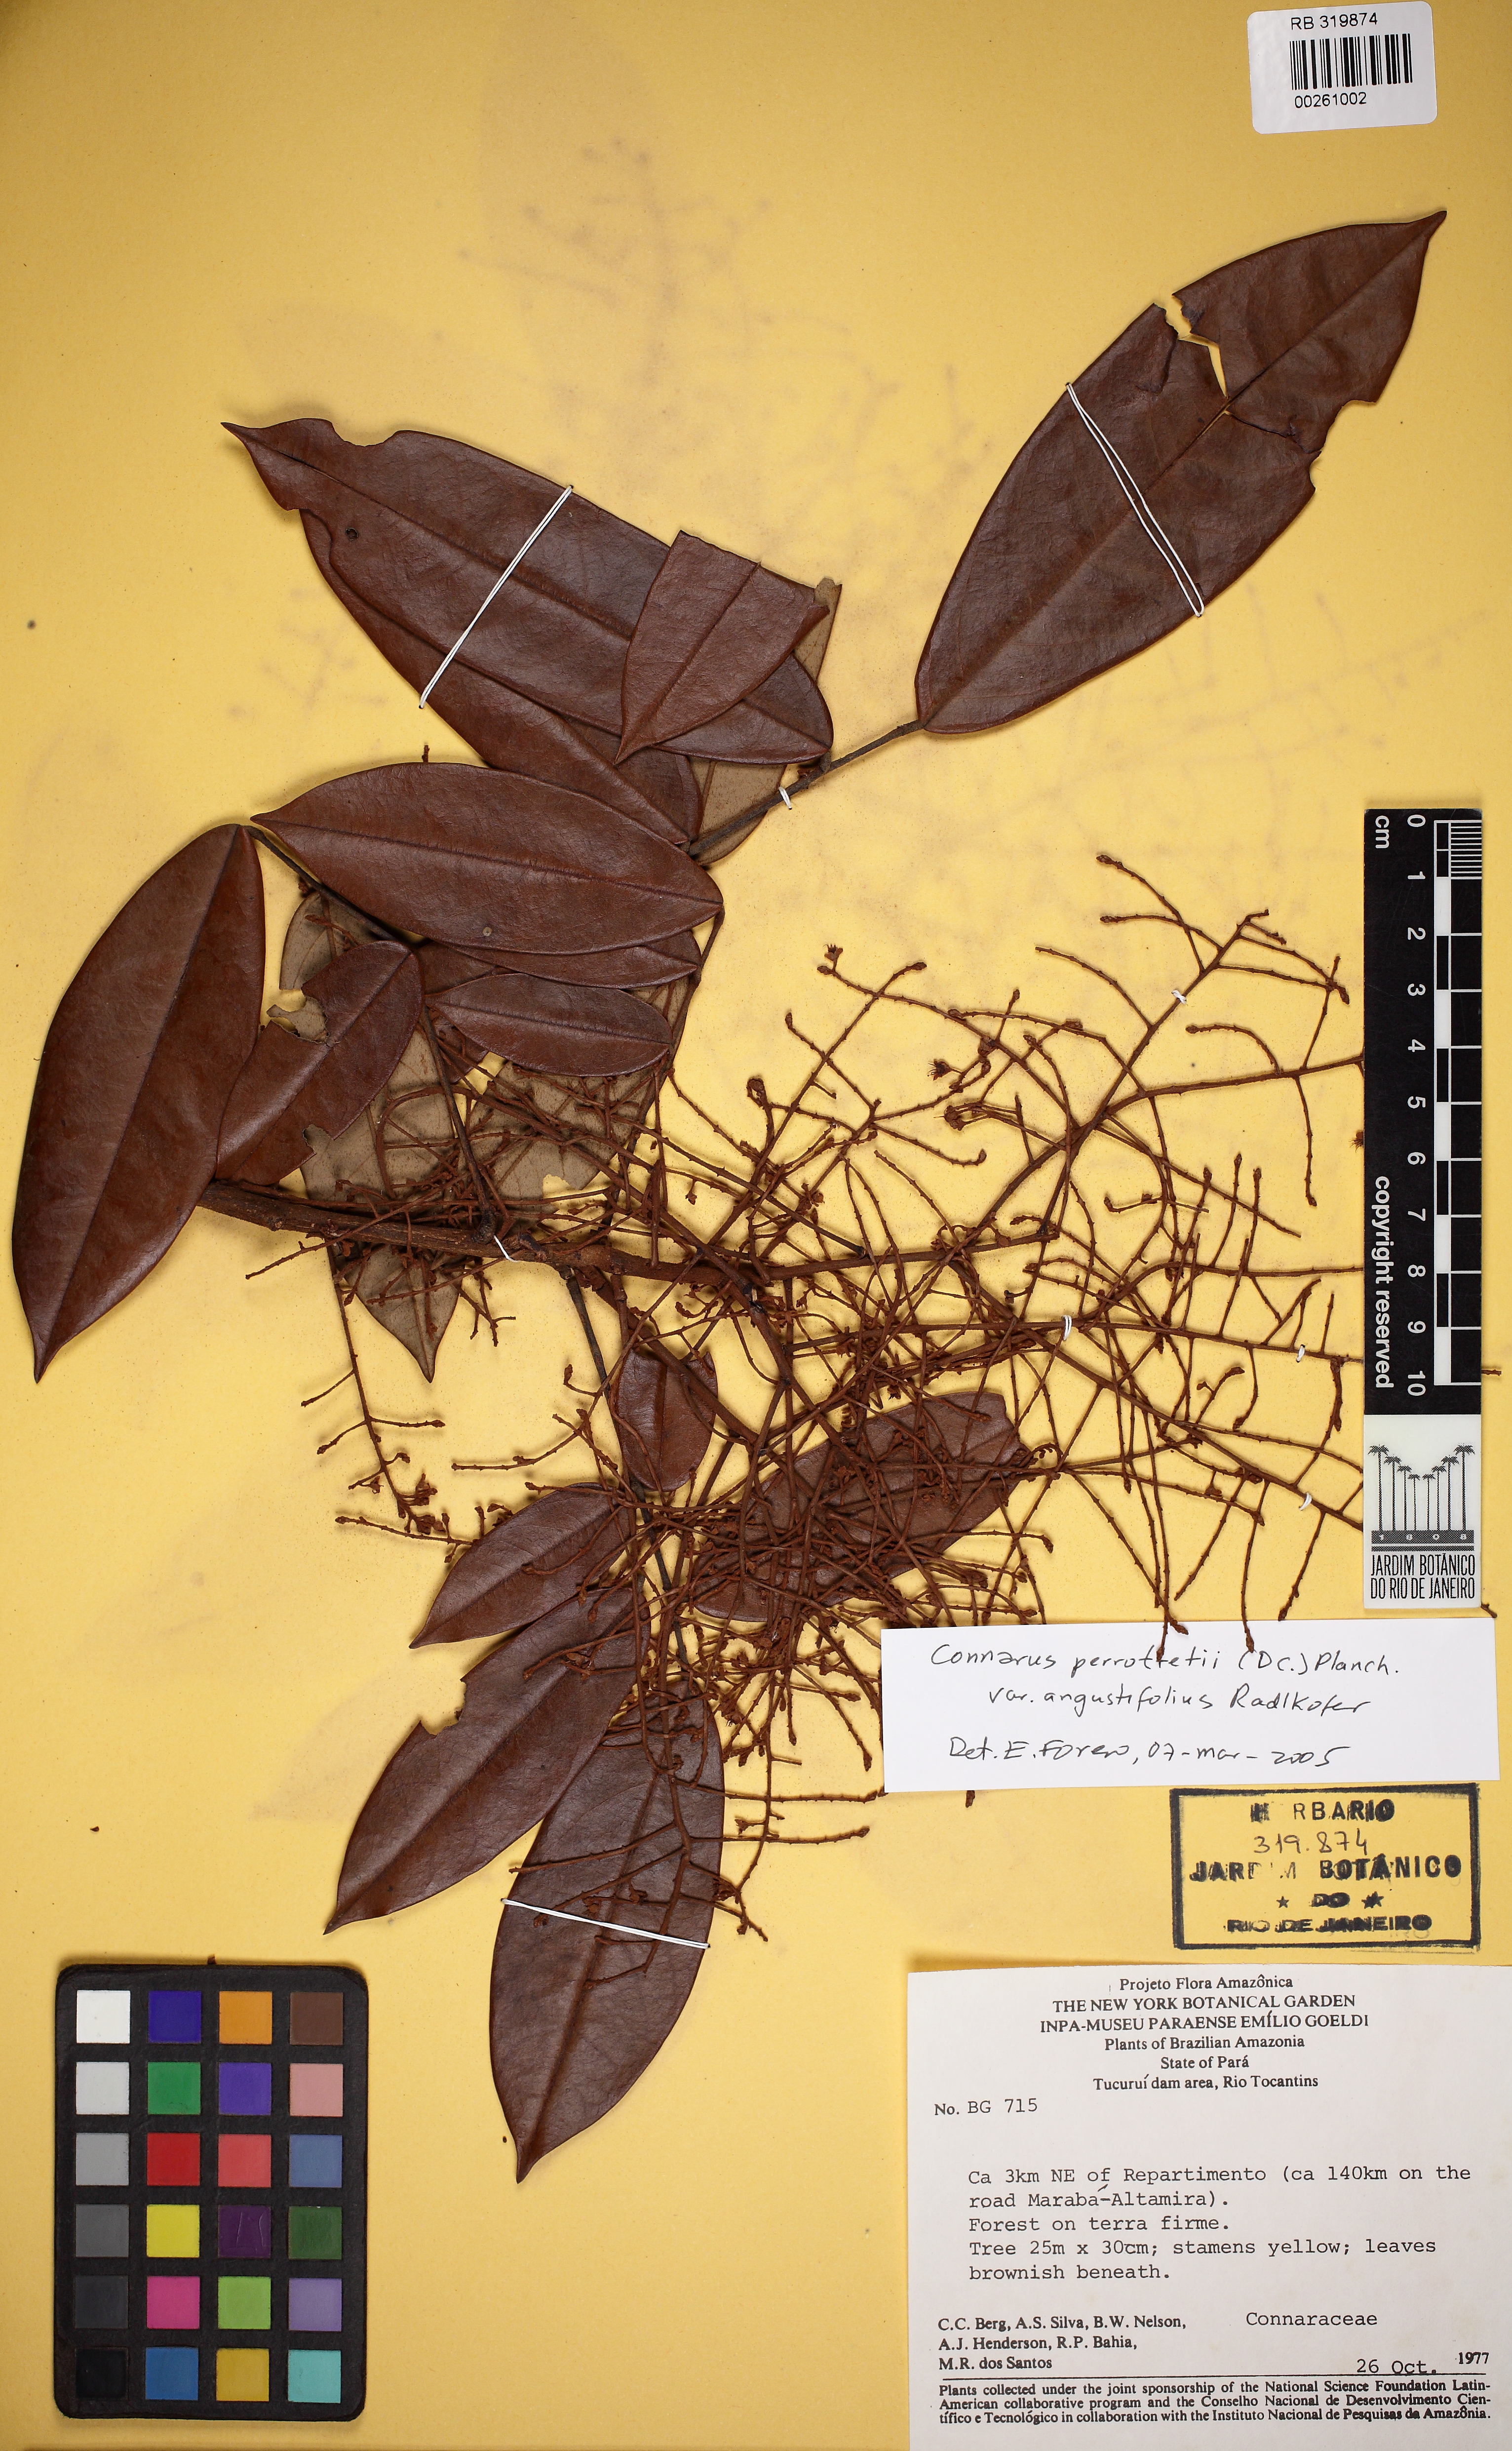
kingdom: Plantae
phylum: Tracheophyta
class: Magnoliopsida
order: Oxalidales
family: Connaraceae
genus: Connarus
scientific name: Connarus perrottetii
